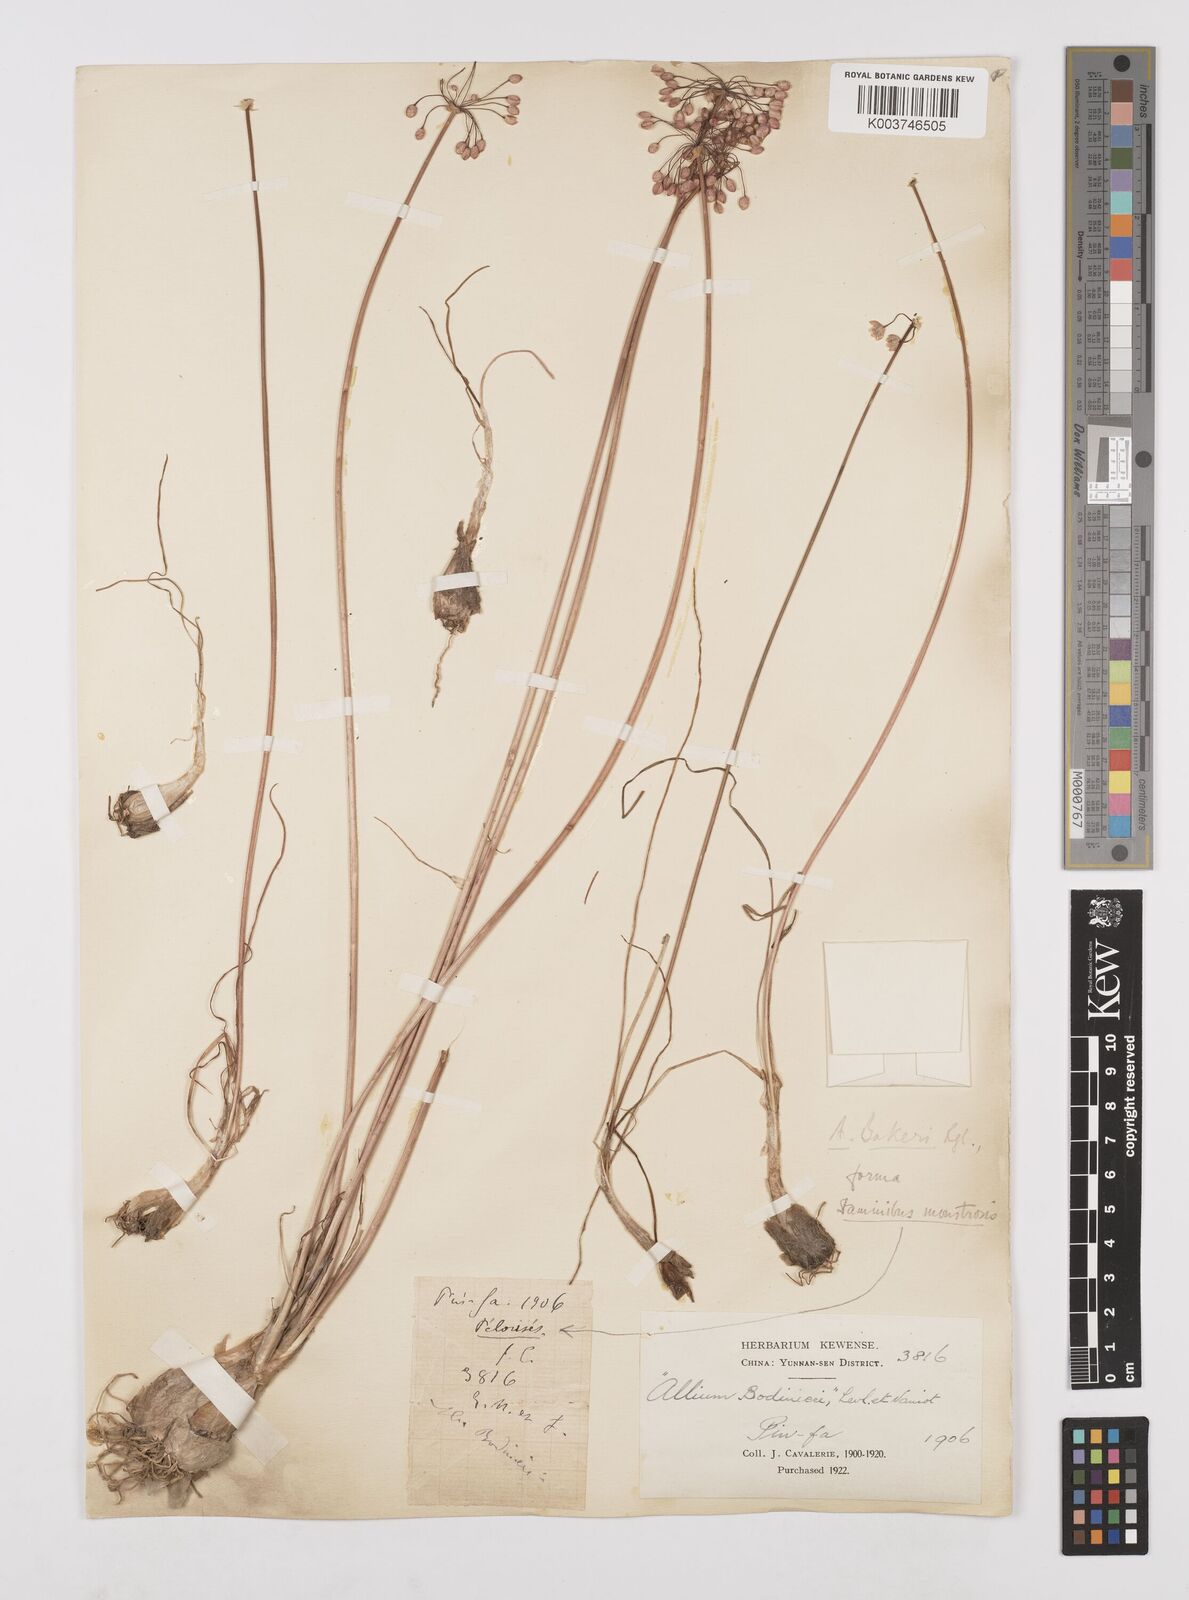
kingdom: Plantae
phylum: Tracheophyta
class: Liliopsida
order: Asparagales
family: Amaryllidaceae
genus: Allium
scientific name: Allium chinense
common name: Japanese scallion
